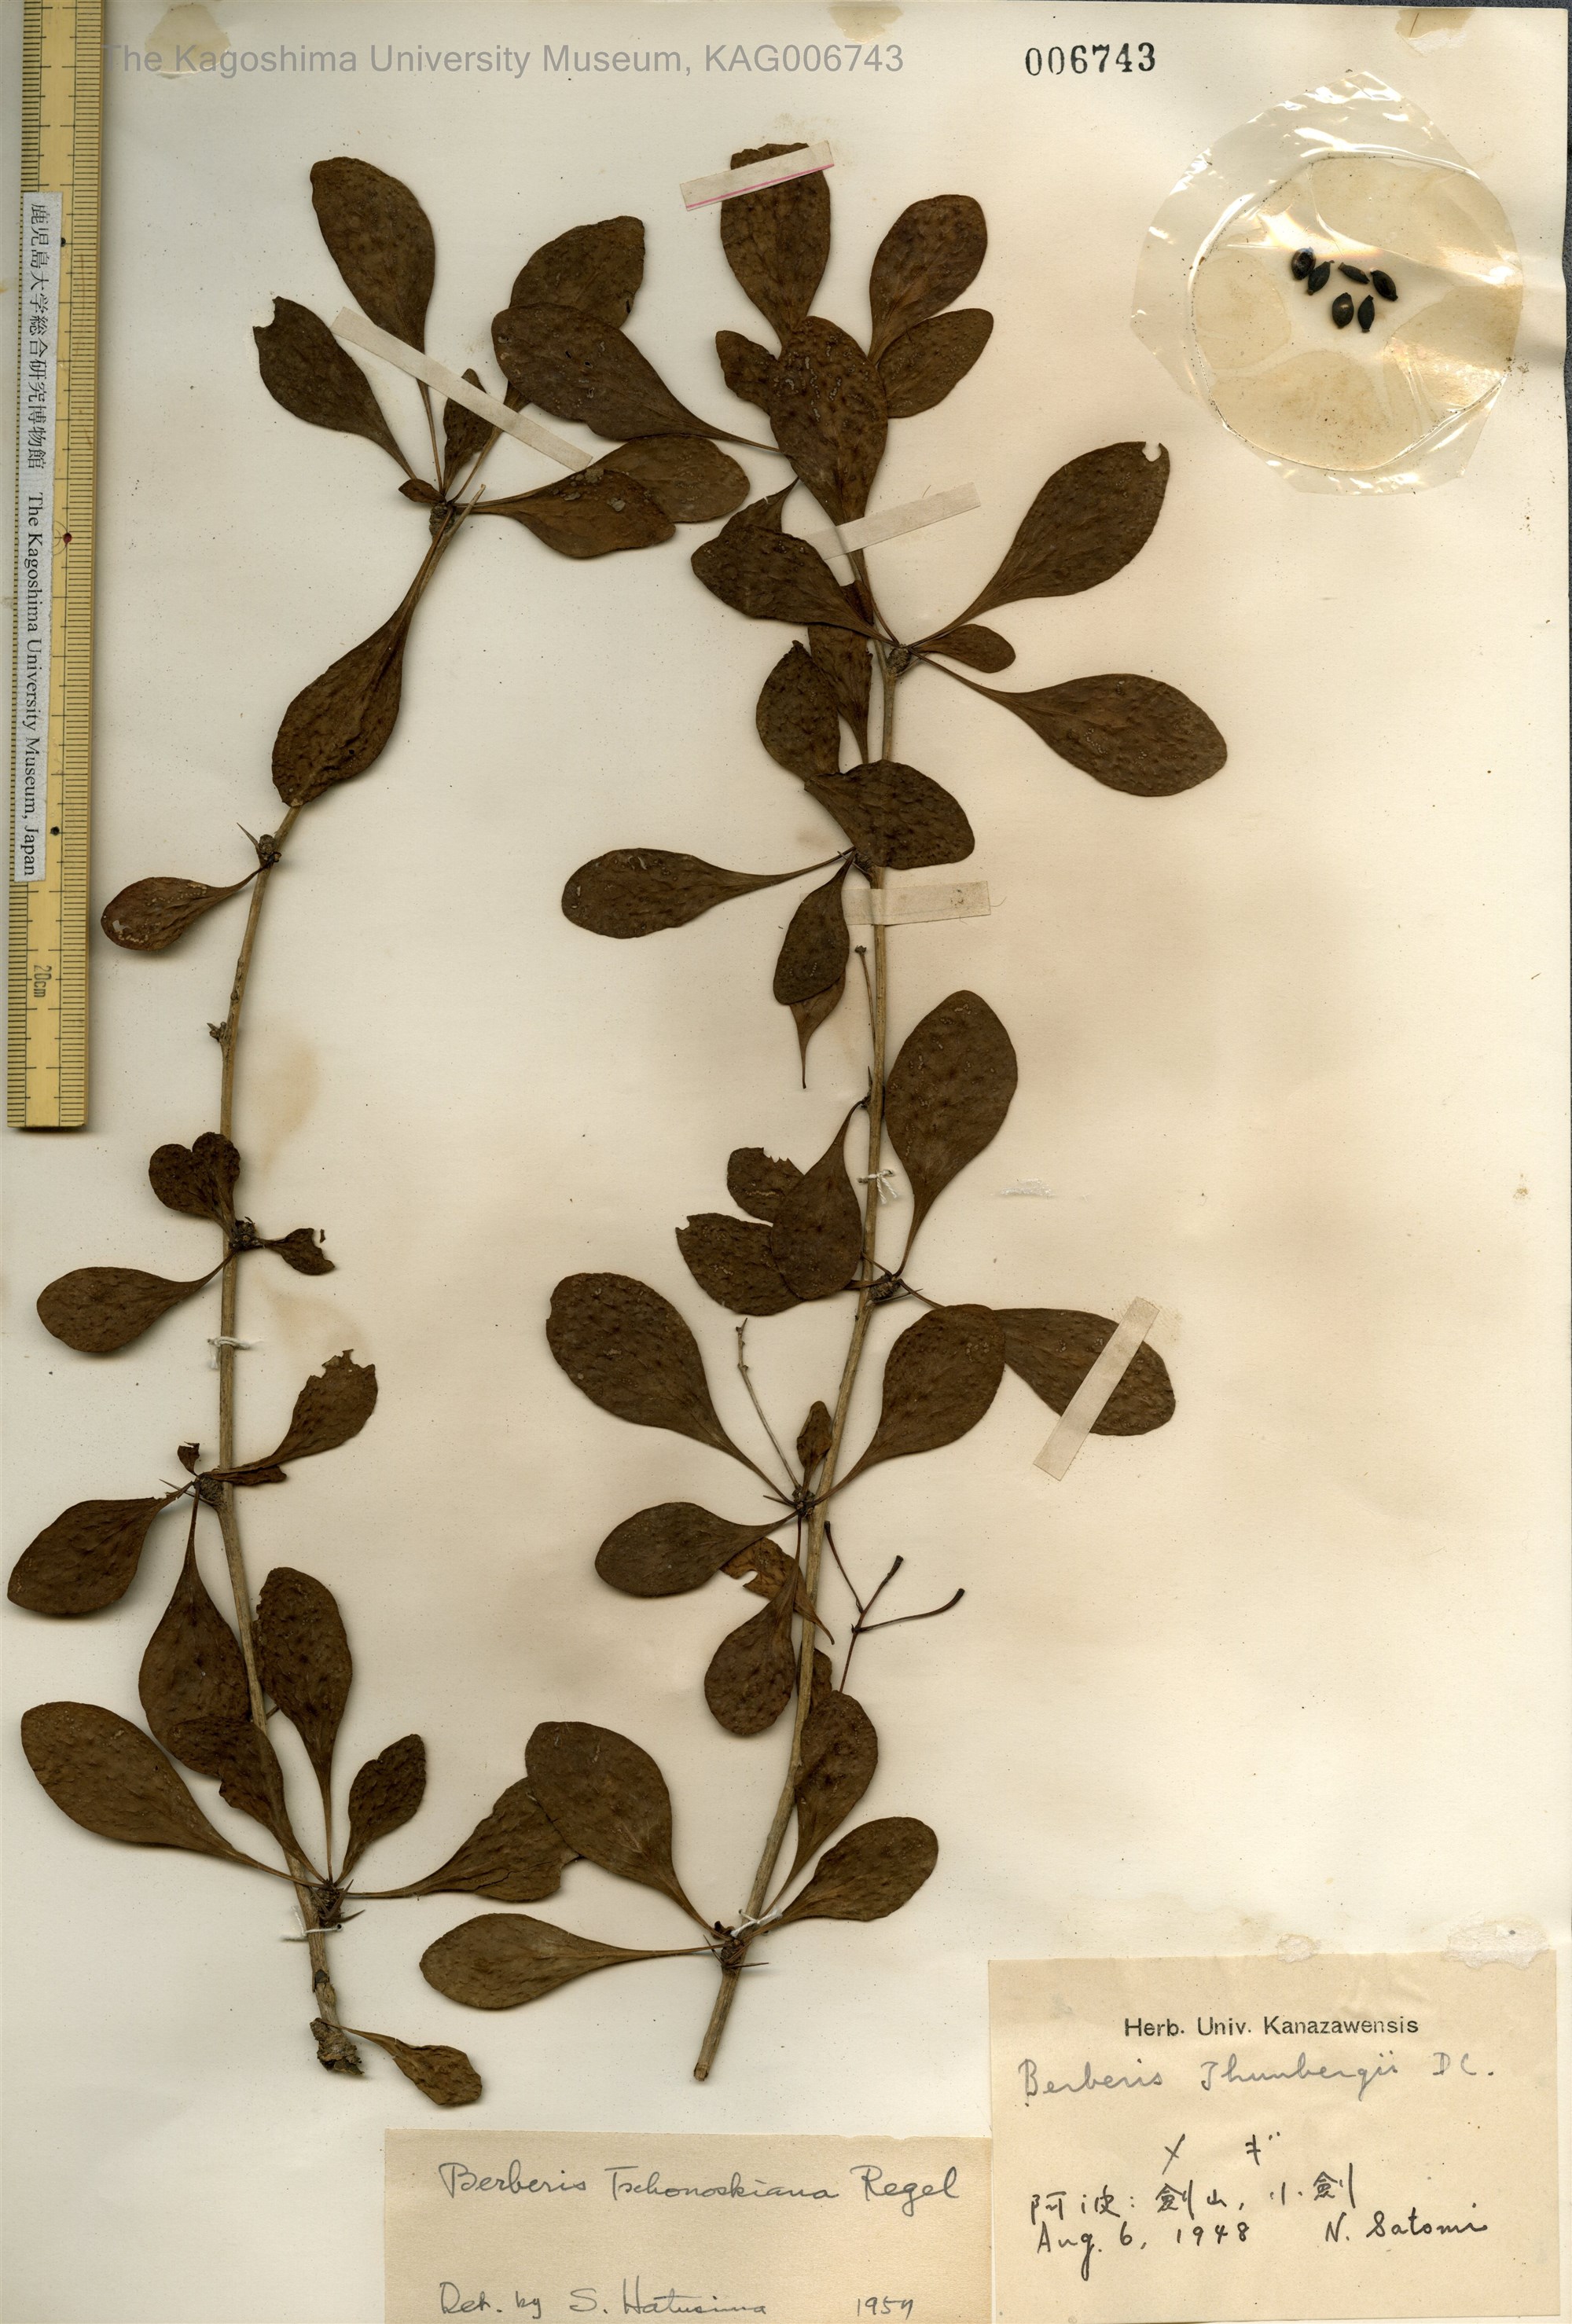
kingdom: Plantae
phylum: Tracheophyta
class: Magnoliopsida
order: Ranunculales
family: Berberidaceae
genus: Berberis
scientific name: Berberis tschonoskyana
